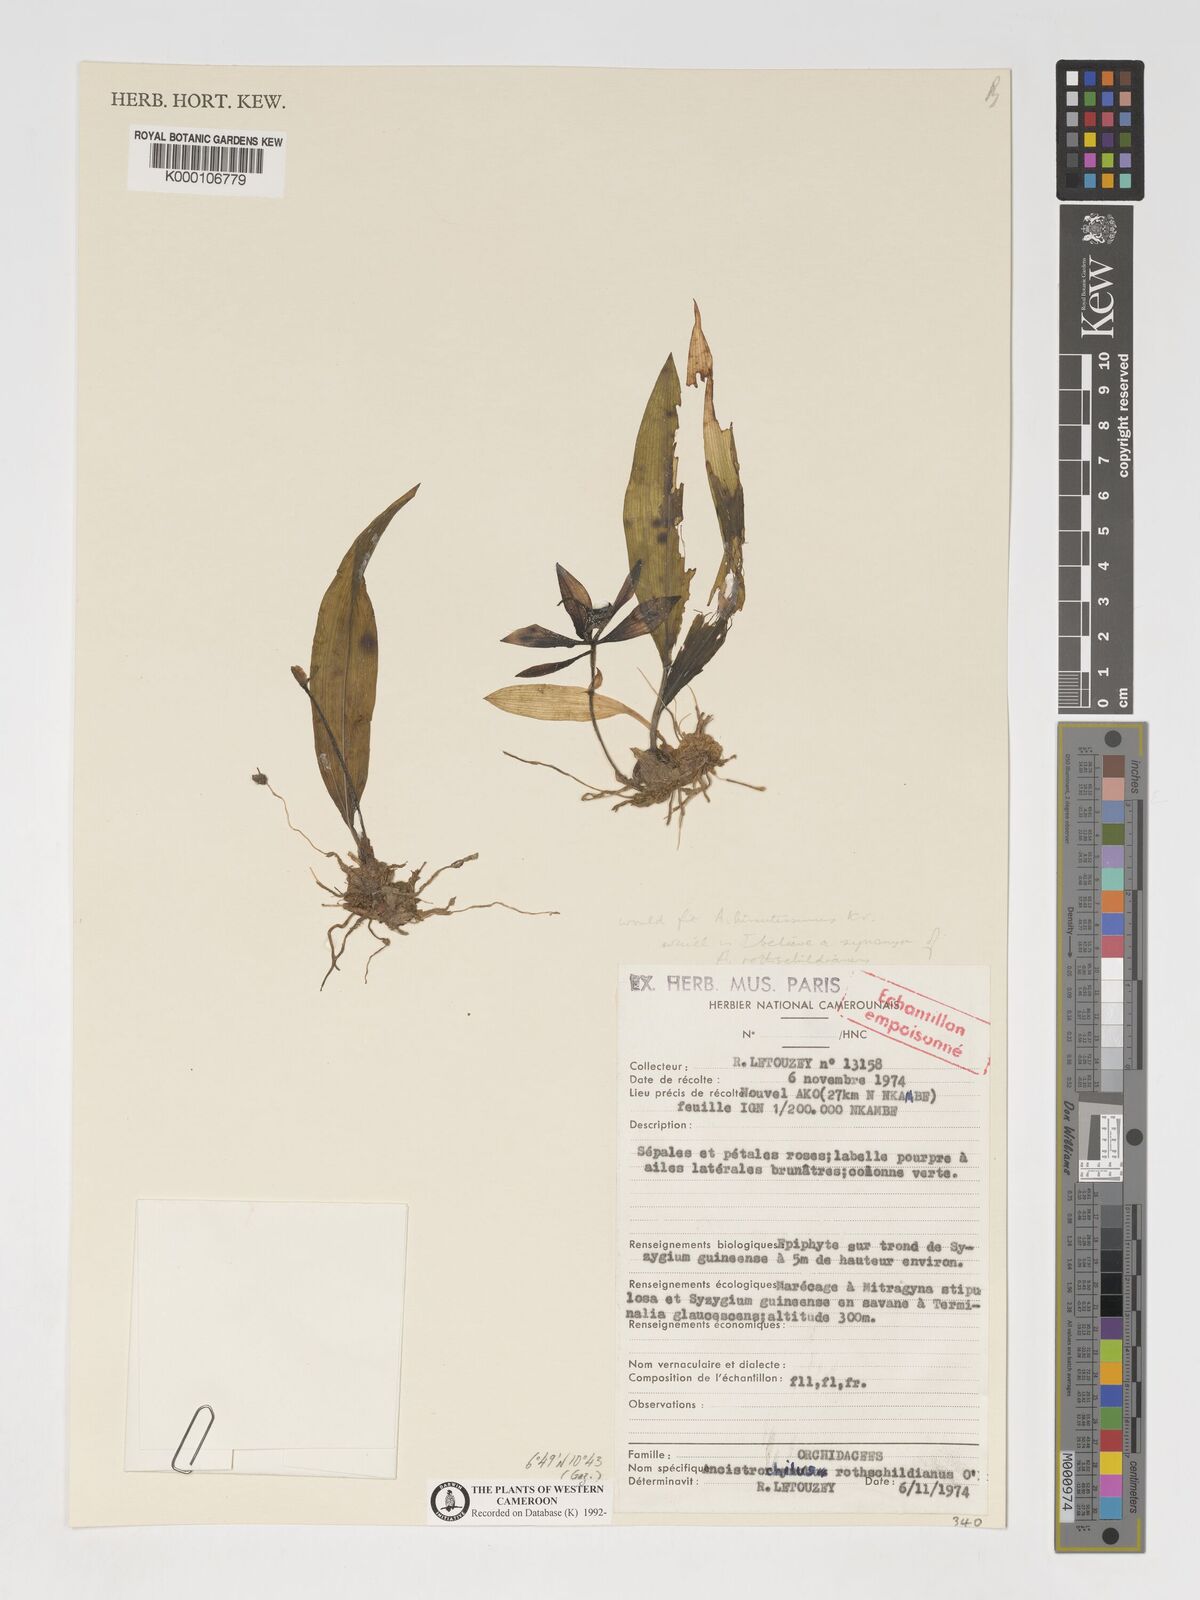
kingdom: Plantae
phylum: Tracheophyta
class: Liliopsida
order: Asparagales
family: Orchidaceae
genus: Ancistrochilus
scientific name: Ancistrochilus rothschildianus
